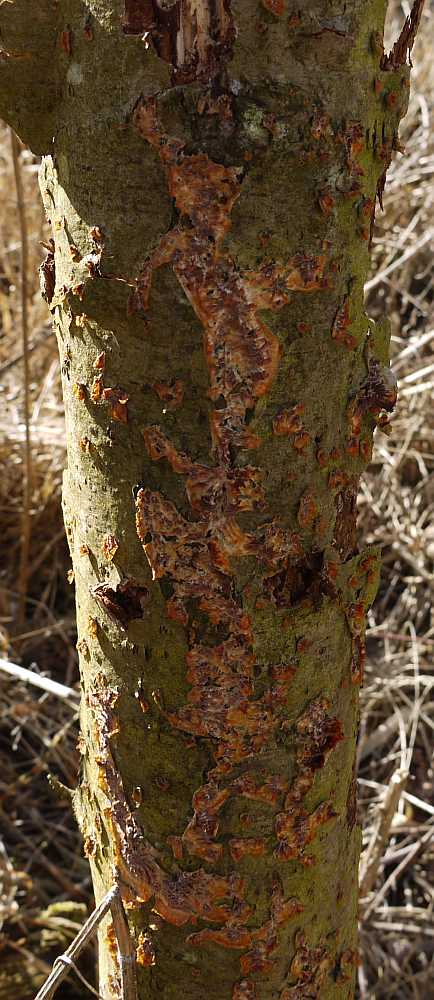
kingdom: Fungi
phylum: Basidiomycota
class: Agaricomycetes
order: Polyporales
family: Meruliaceae
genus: Phlebia
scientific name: Phlebia radiata
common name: stråle-åresvamp
